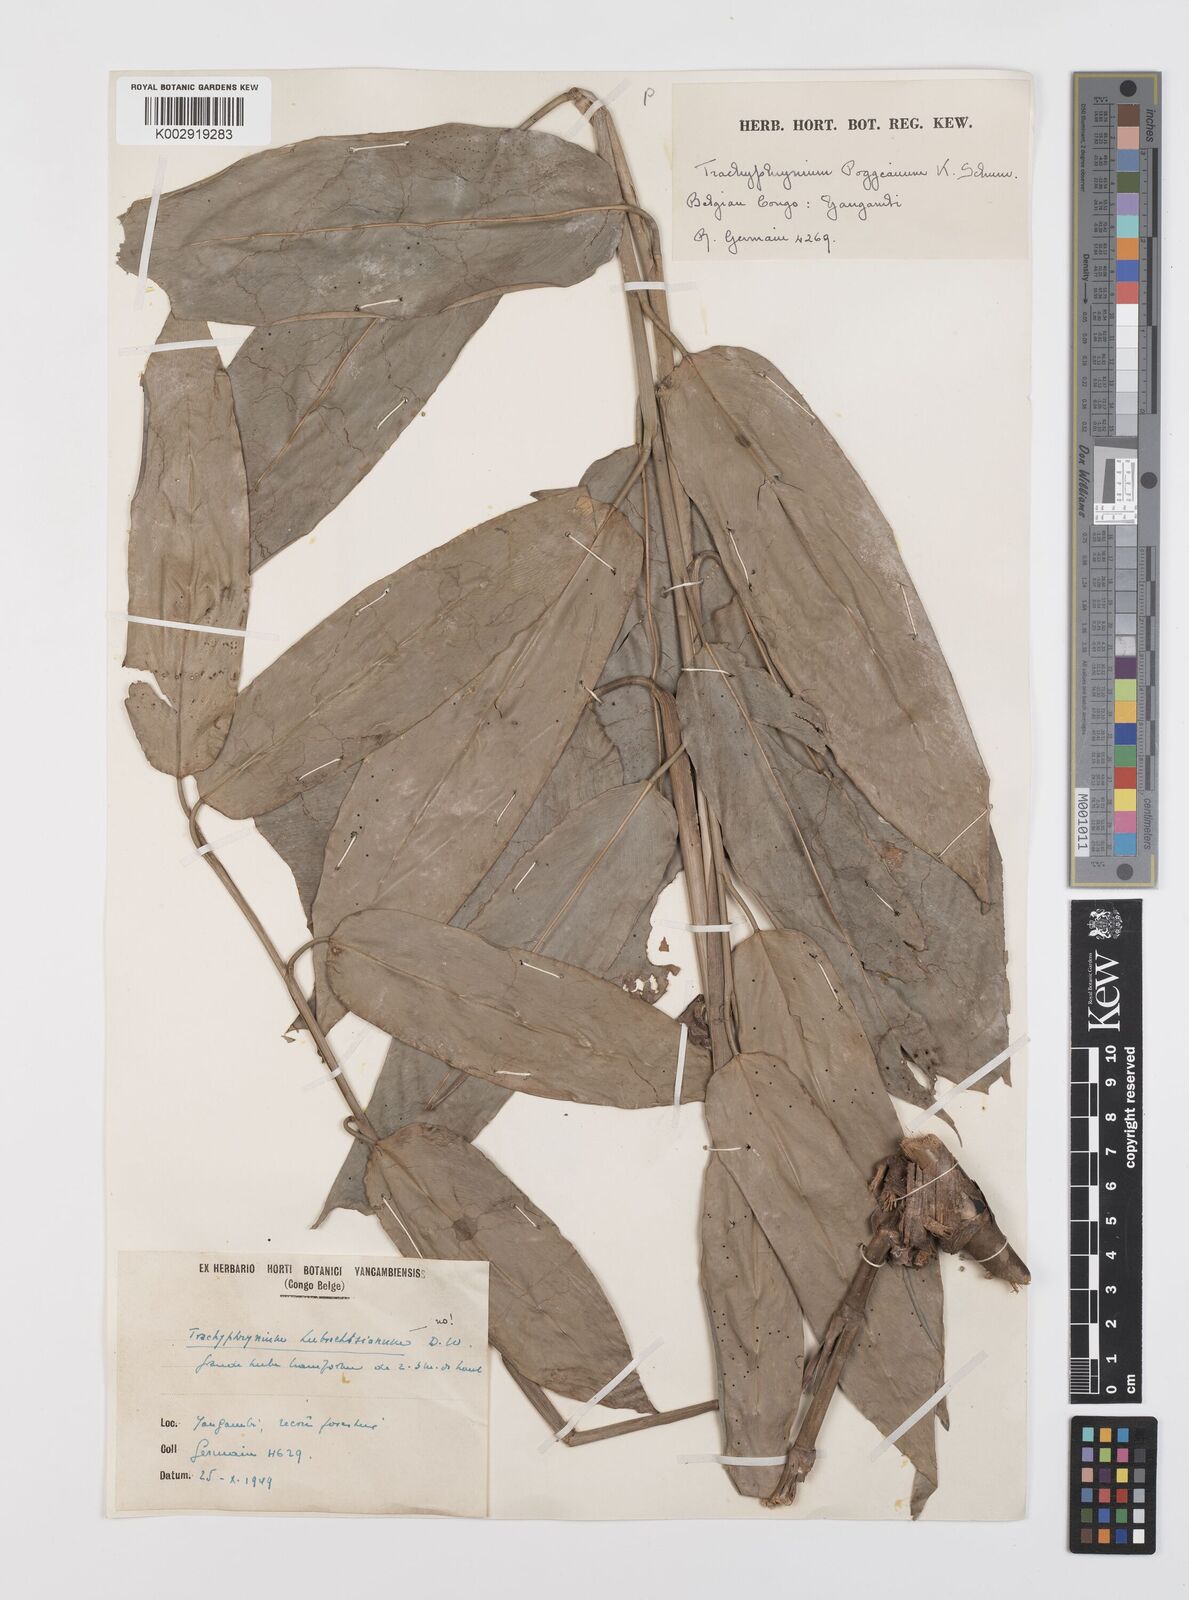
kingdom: Plantae
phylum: Tracheophyta
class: Liliopsida
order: Zingiberales
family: Marantaceae
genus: Hypselodelphys
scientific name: Hypselodelphys poggeana
